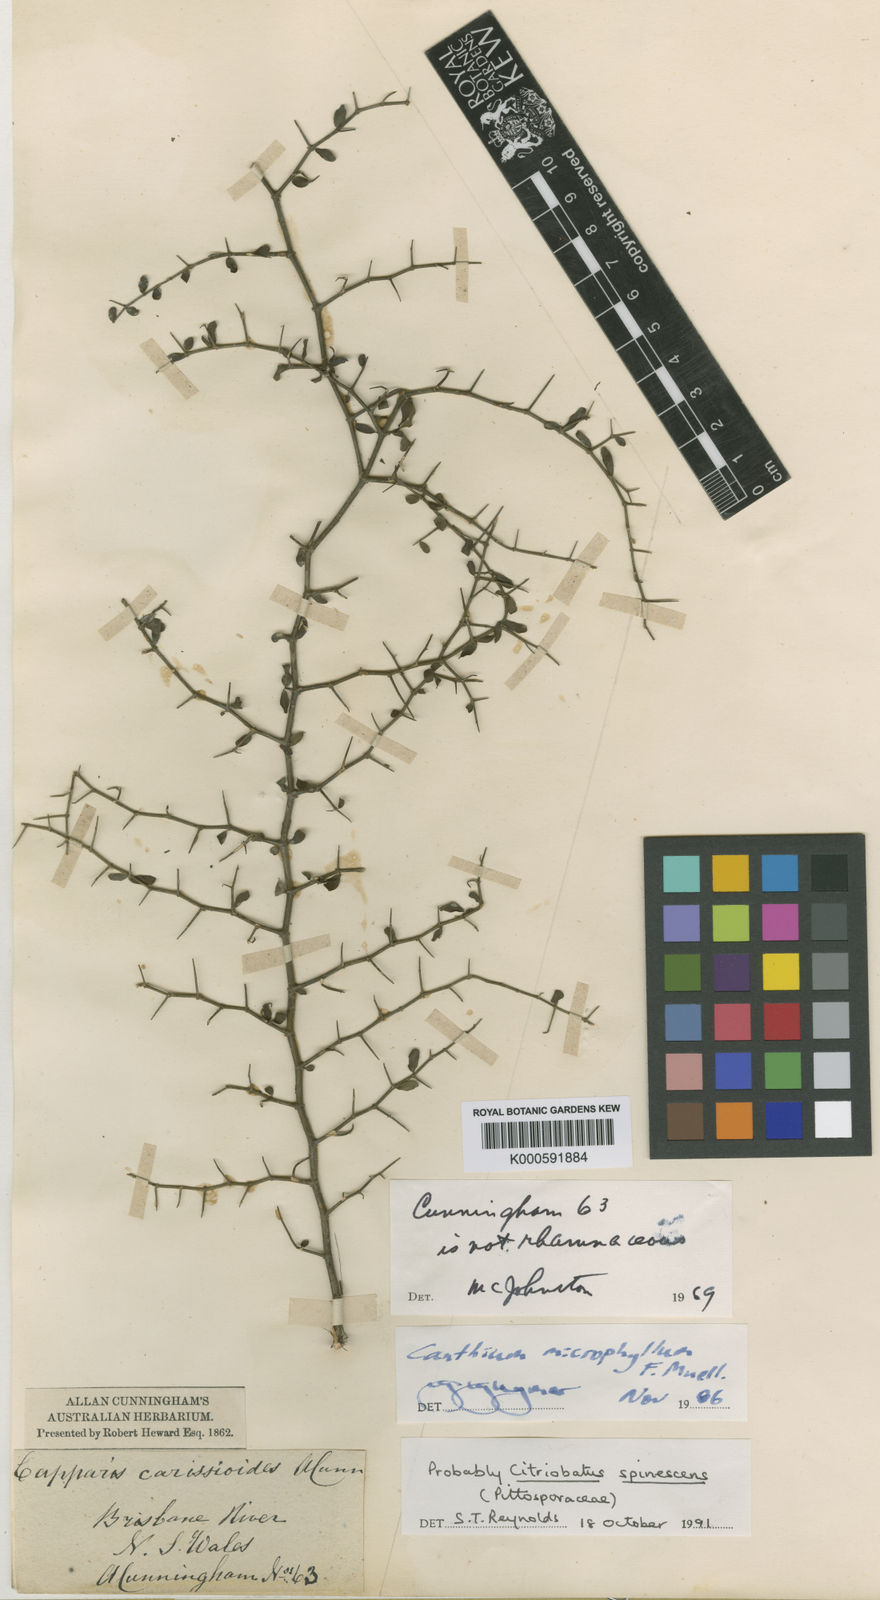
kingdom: Plantae
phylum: Tracheophyta
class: Magnoliopsida
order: Apiales
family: Pittosporaceae
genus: Pittosporum
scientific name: Pittosporum spinescens
